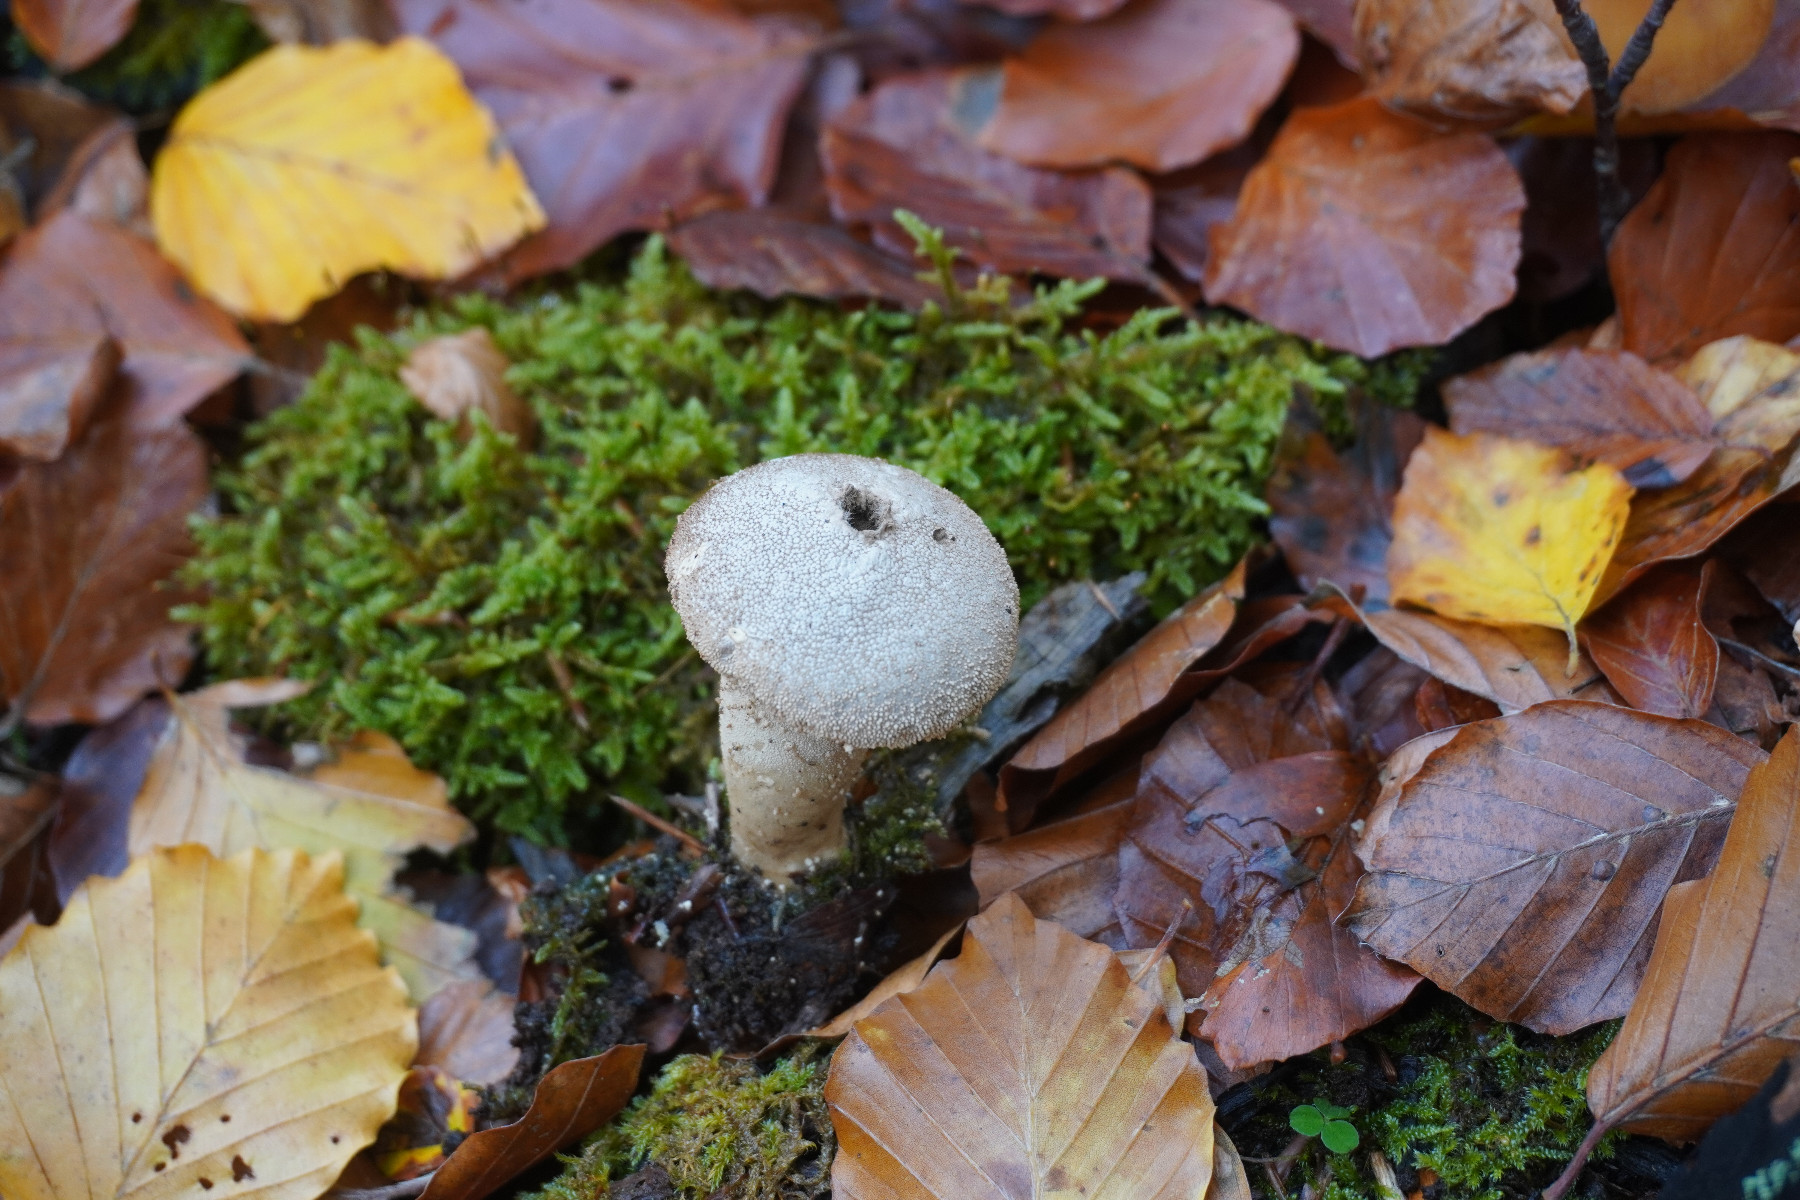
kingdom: Fungi
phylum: Basidiomycota
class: Agaricomycetes
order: Agaricales
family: Lycoperdaceae
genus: Lycoperdon
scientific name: Lycoperdon perlatum
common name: krystal-støvbold
